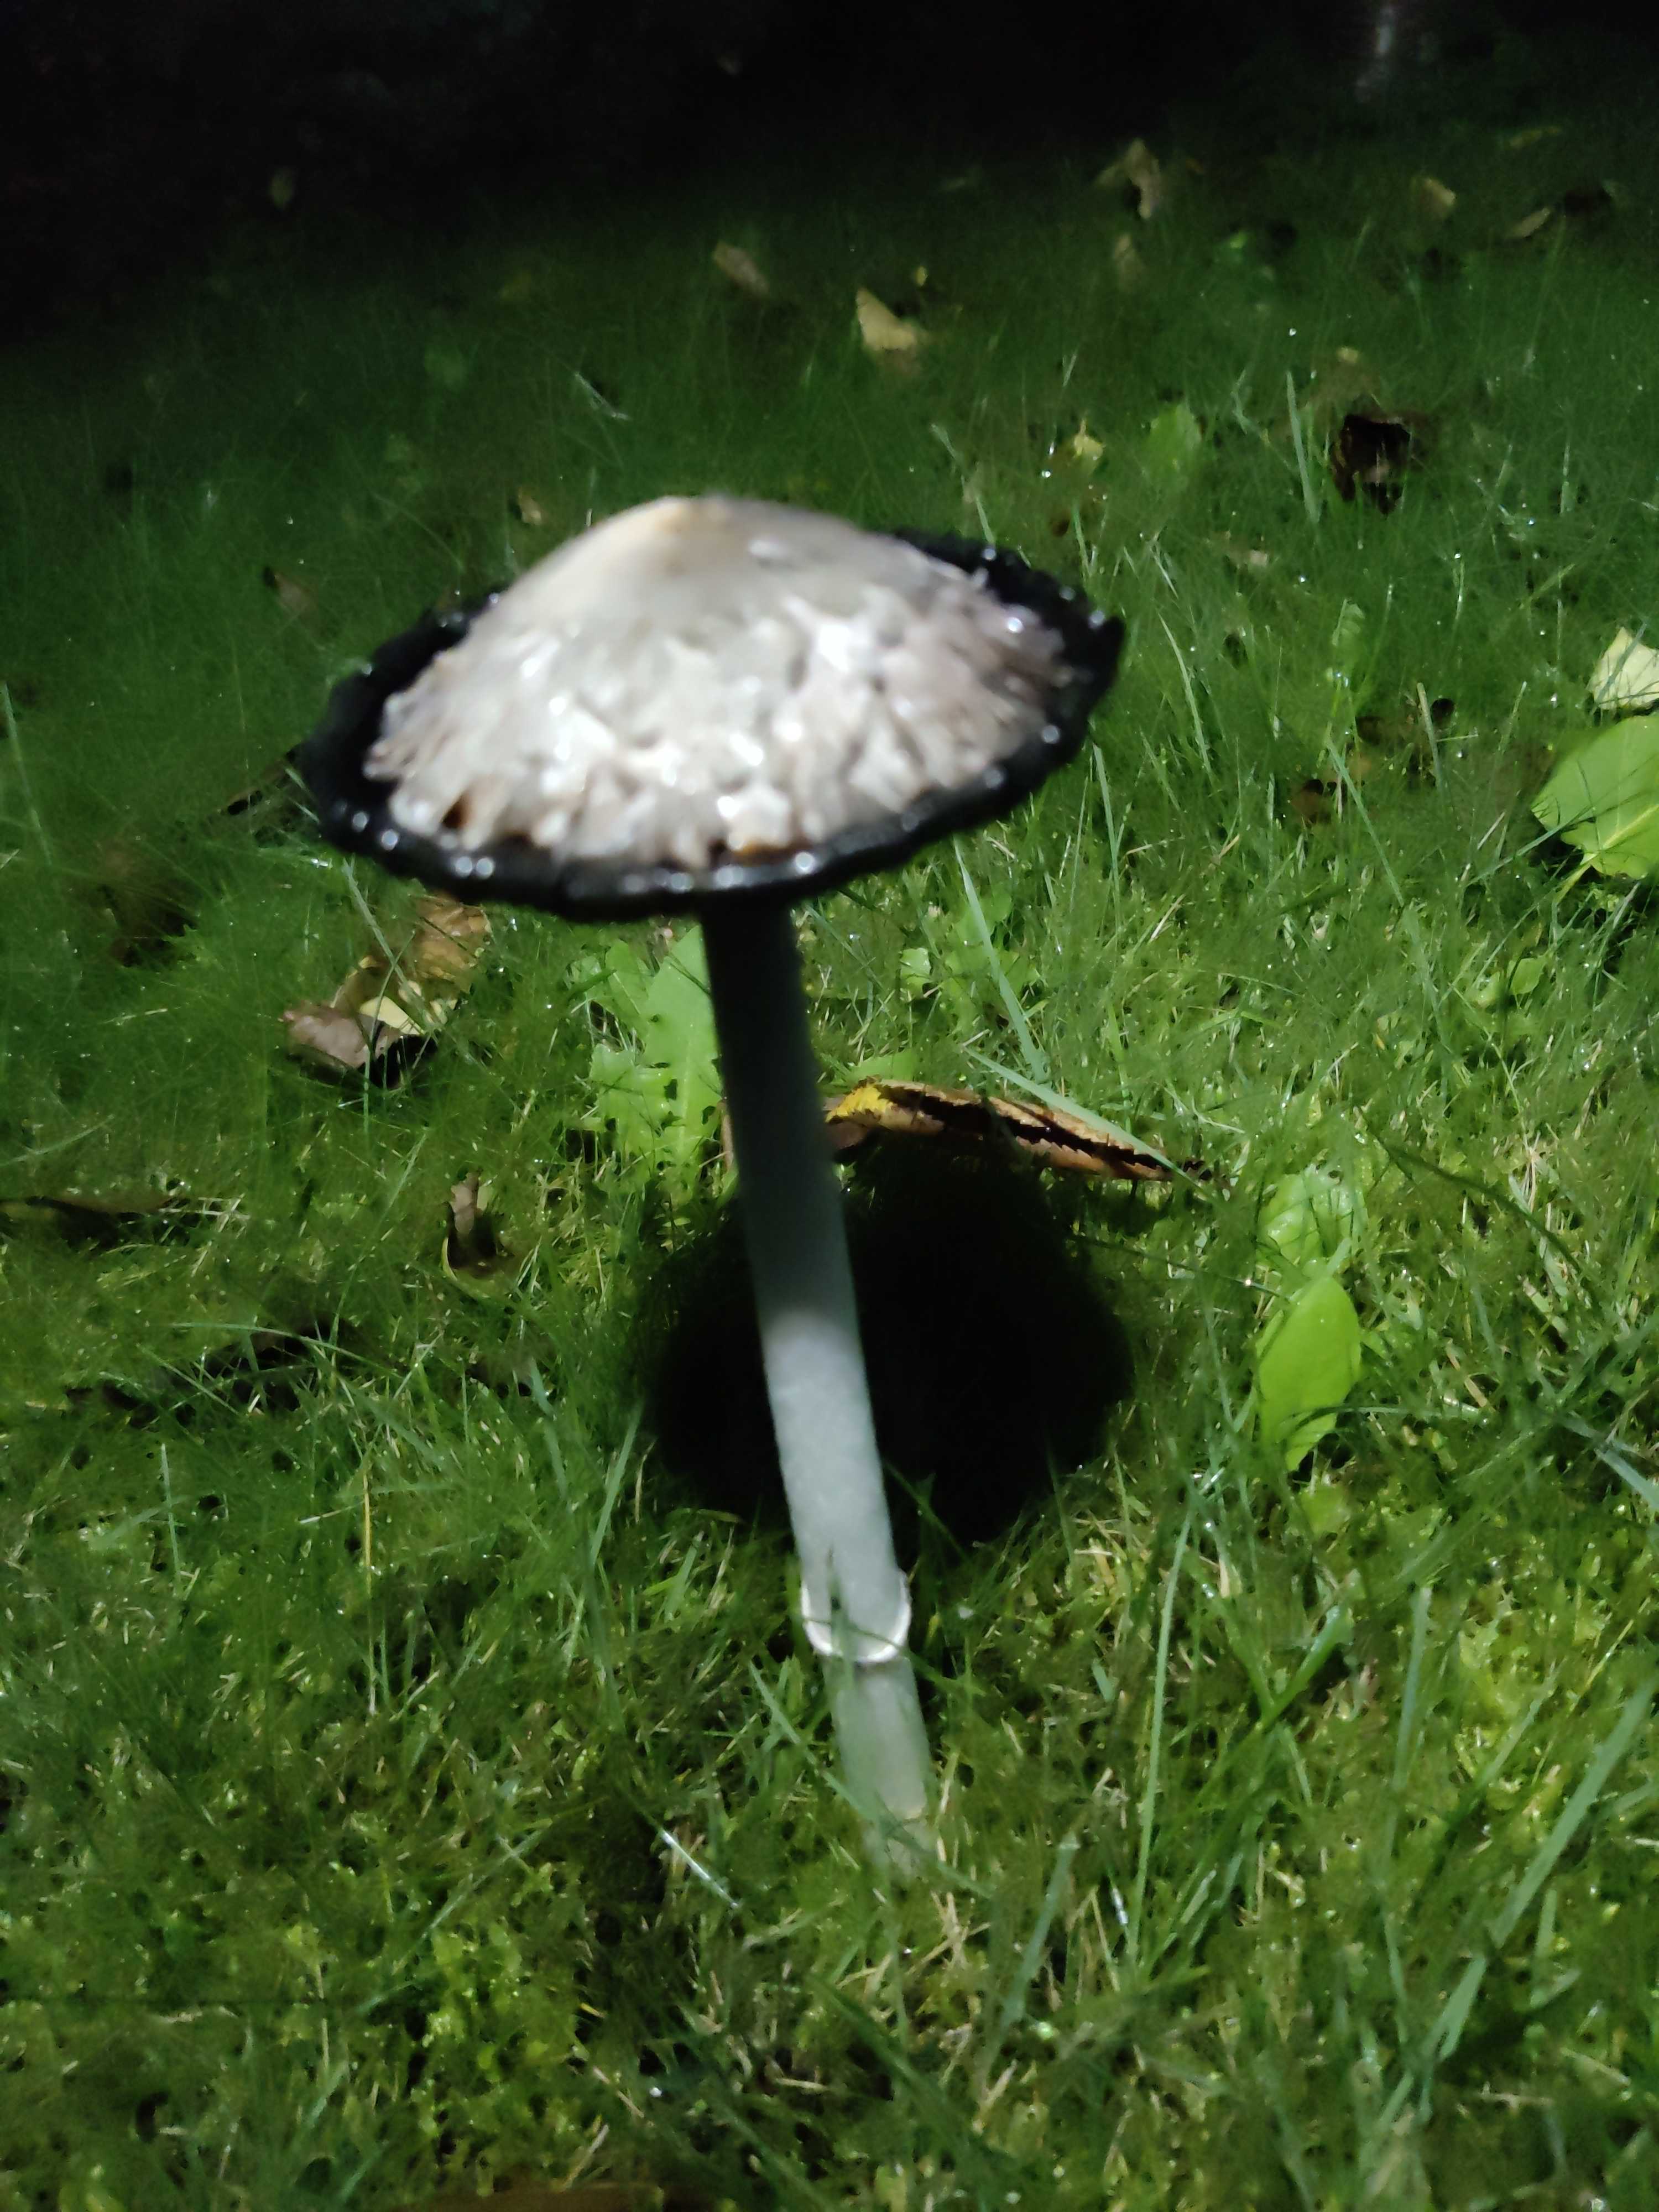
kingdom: Fungi
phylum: Basidiomycota
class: Agaricomycetes
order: Agaricales
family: Agaricaceae
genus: Coprinus
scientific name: Coprinus comatus
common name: stor parykhat
